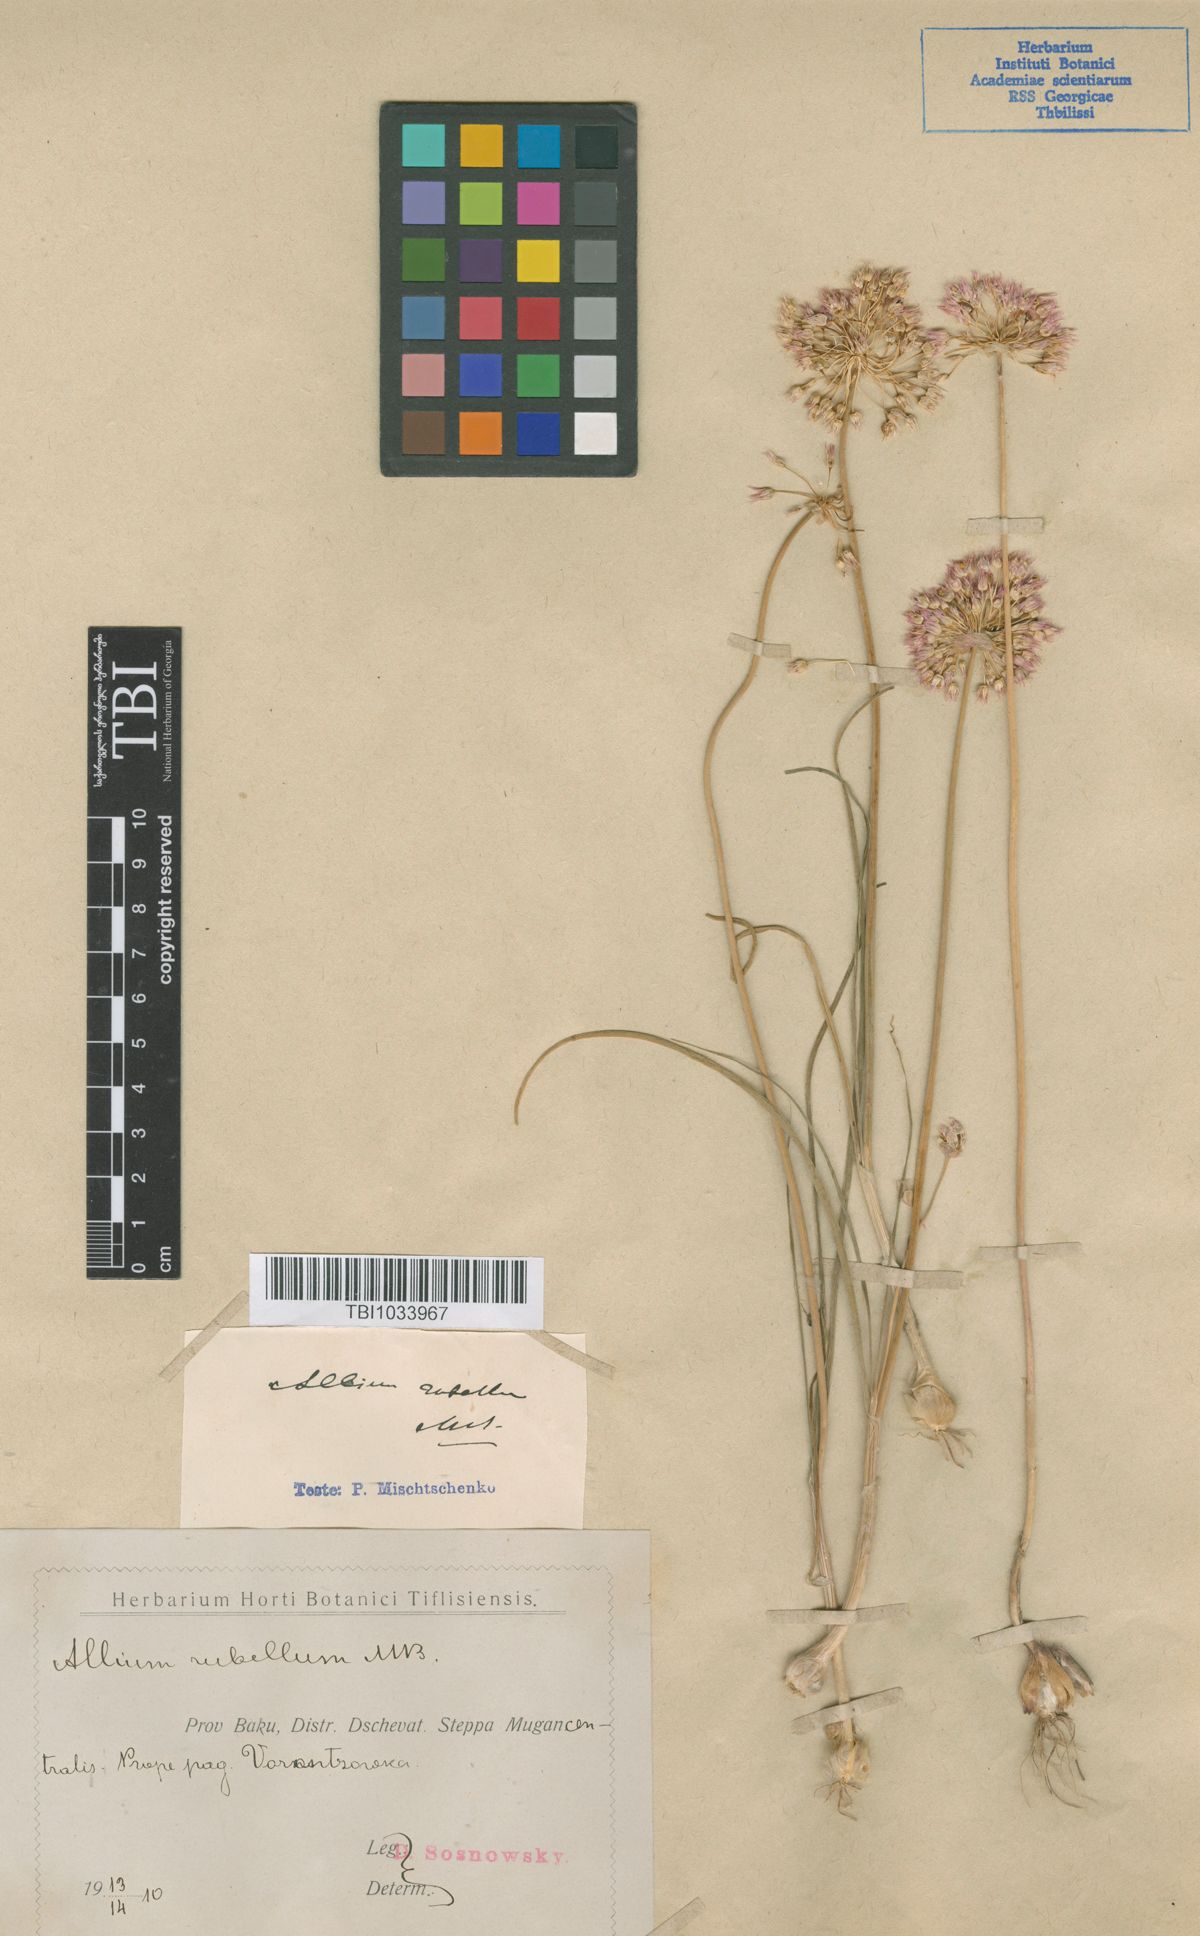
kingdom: Plantae
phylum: Tracheophyta
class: Liliopsida
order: Asparagales
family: Amaryllidaceae
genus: Allium
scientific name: Allium rubellum
